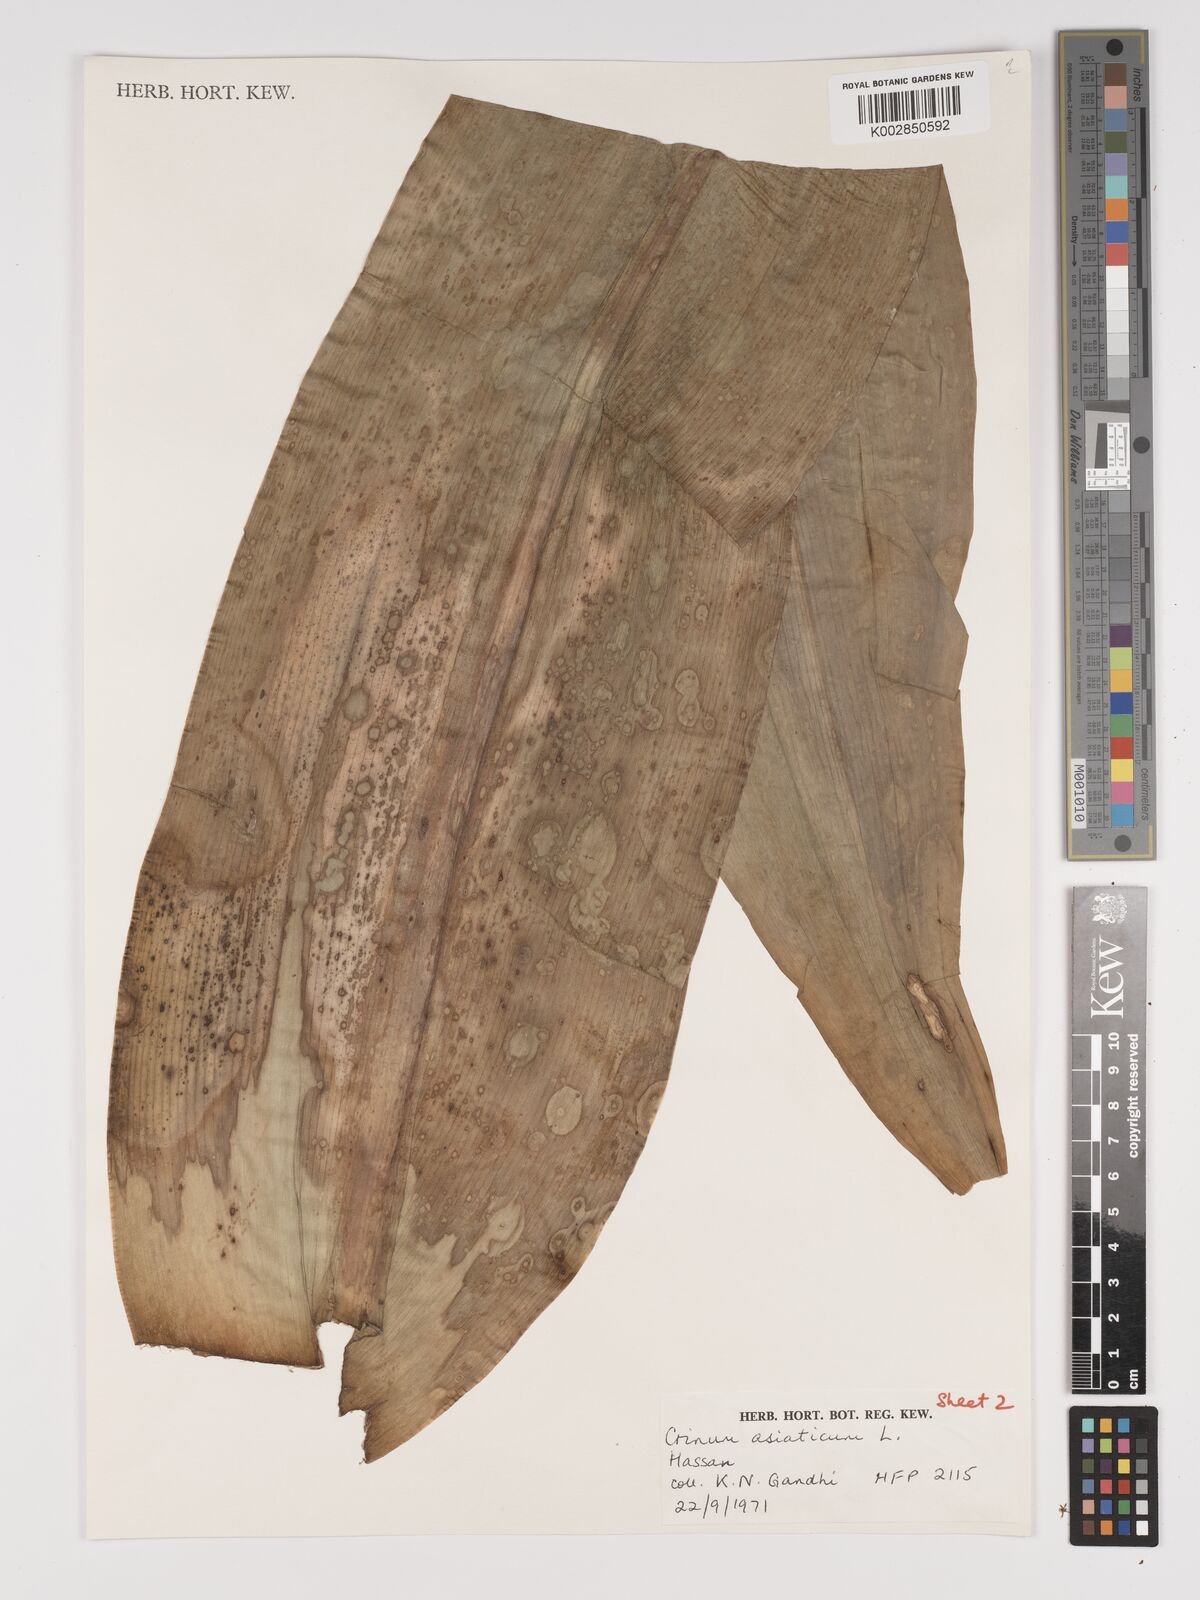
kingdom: Plantae
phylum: Tracheophyta
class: Liliopsida
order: Asparagales
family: Amaryllidaceae
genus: Crinum
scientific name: Crinum asiaticum
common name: Poisonbulb
